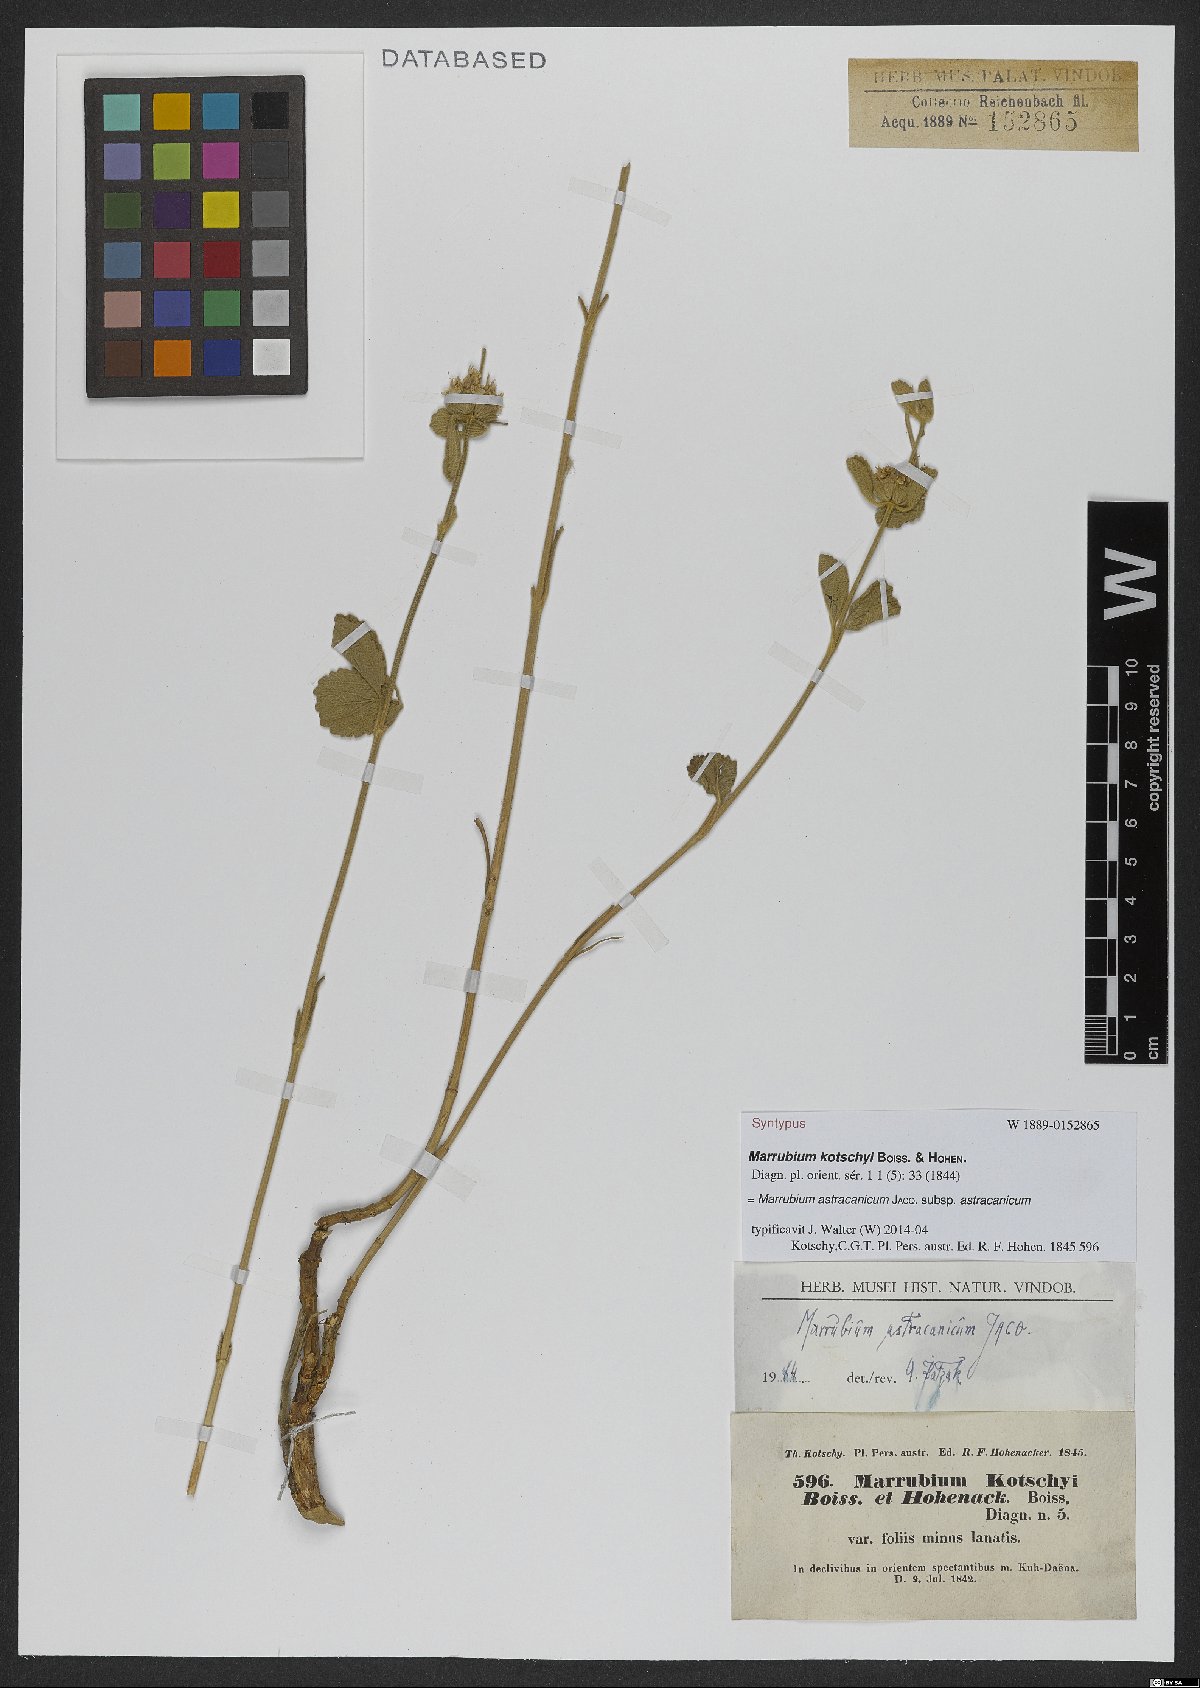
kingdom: Plantae
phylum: Tracheophyta
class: Magnoliopsida
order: Lamiales
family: Lamiaceae
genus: Marrubium
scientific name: Marrubium astracanicum
